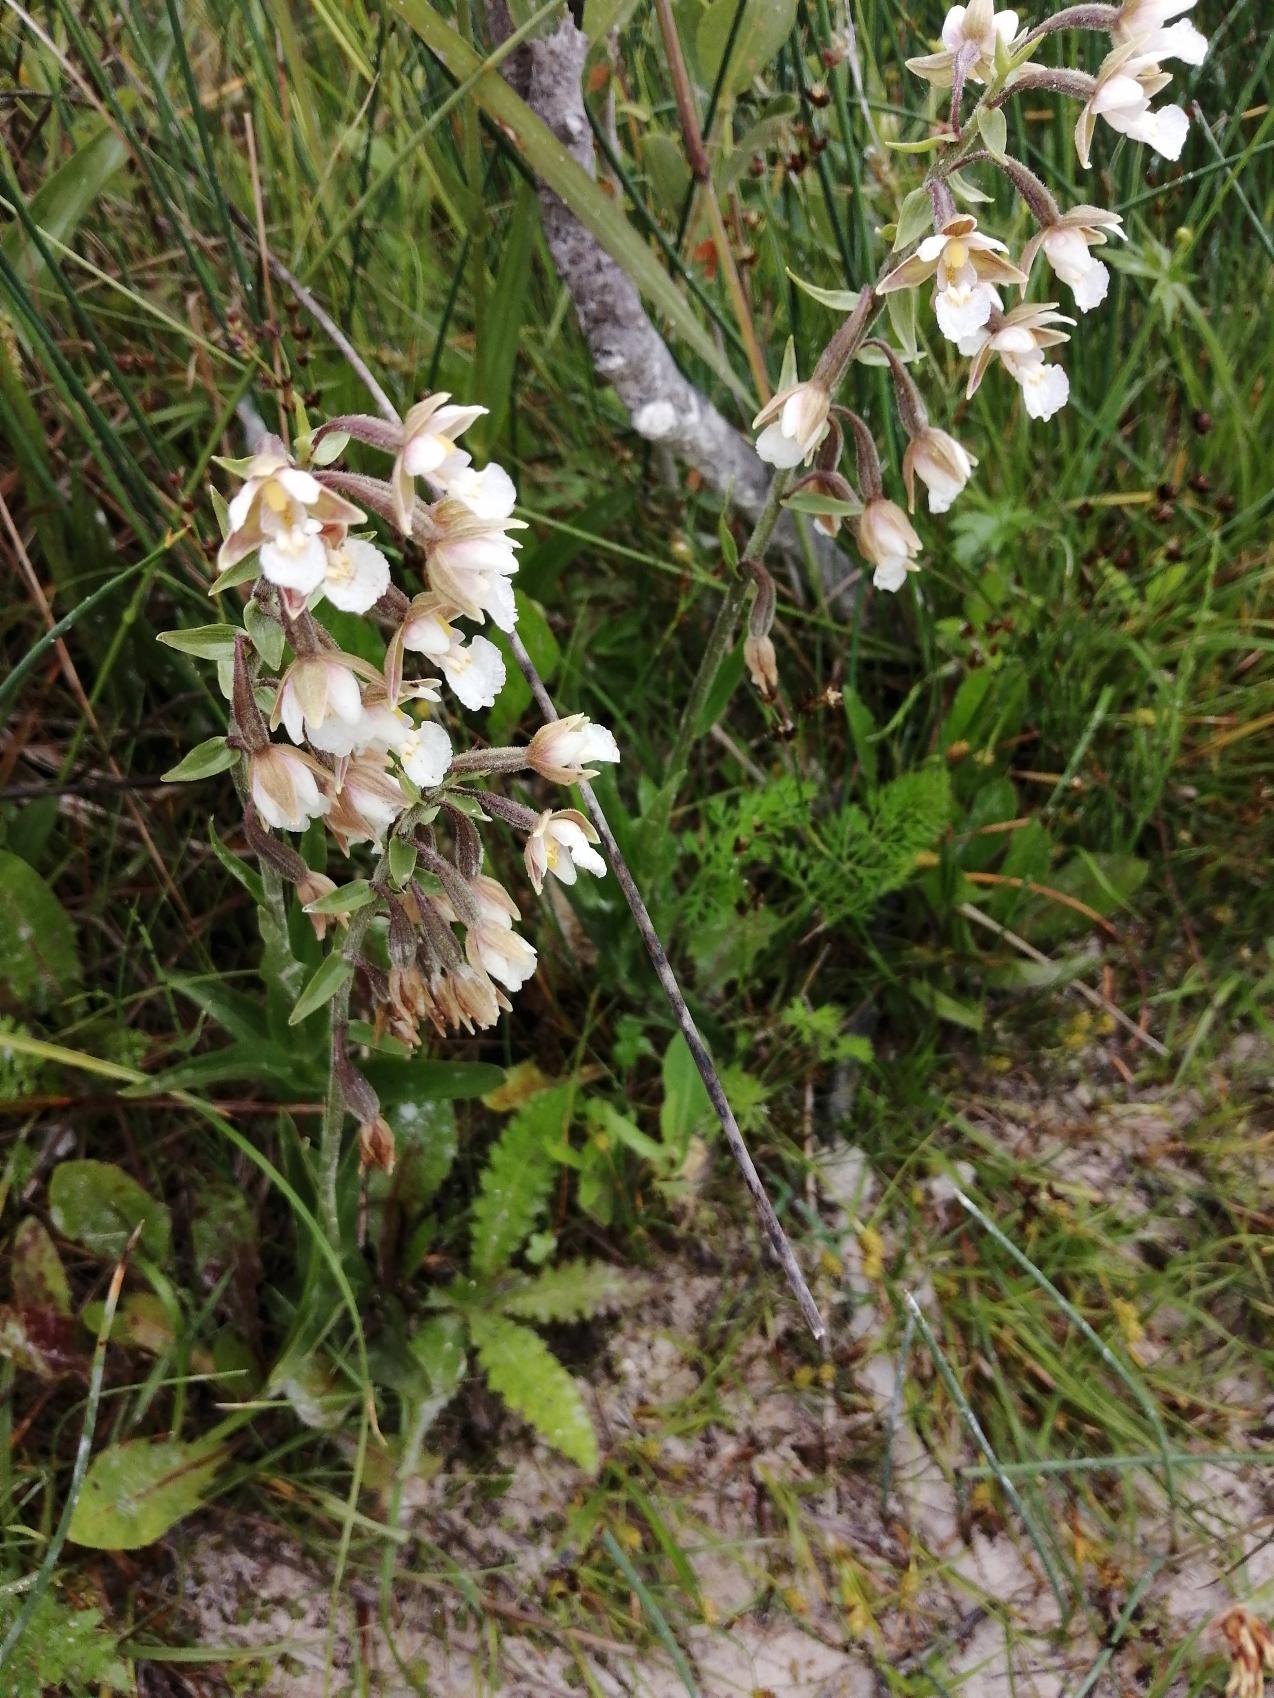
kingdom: Plantae
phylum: Tracheophyta
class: Liliopsida
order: Asparagales
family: Orchidaceae
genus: Epipactis
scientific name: Epipactis palustris
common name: Sump-hullæbe
